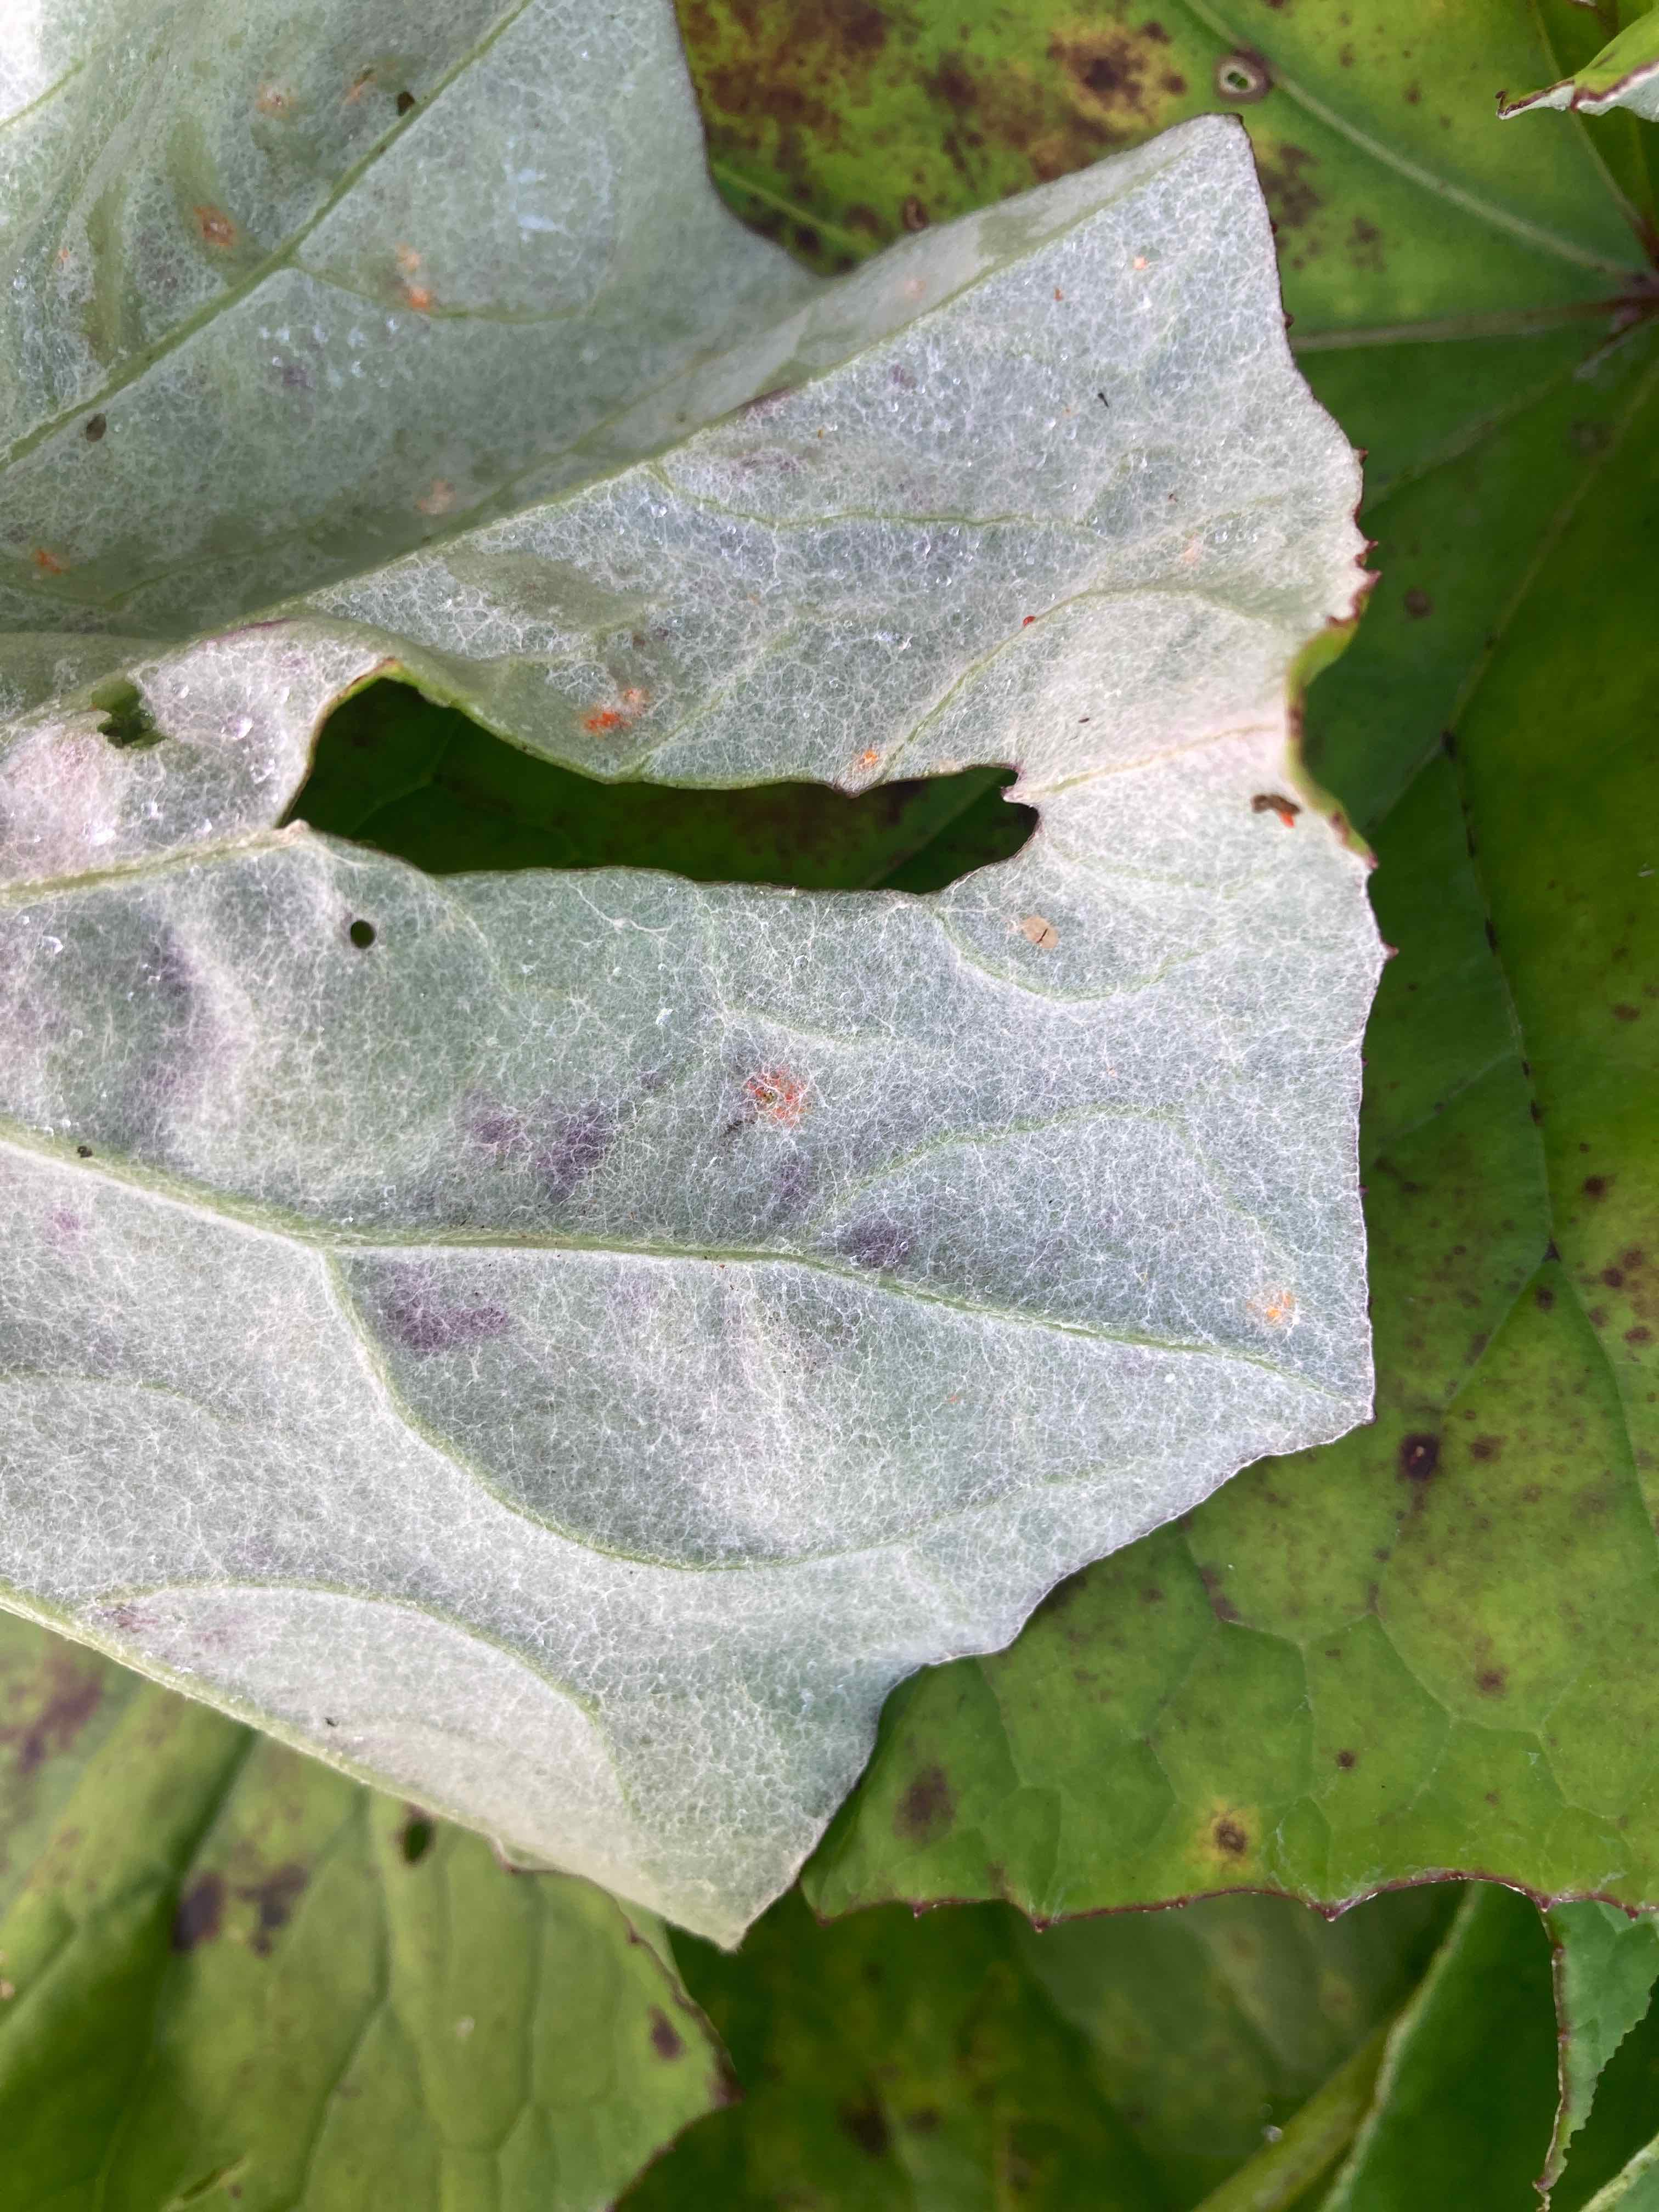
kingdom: Fungi
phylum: Basidiomycota
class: Pucciniomycetes
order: Pucciniales
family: Coleosporiaceae
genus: Coleosporium
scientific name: Coleosporium tussilaginis
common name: almindelig fyrrenålerust
